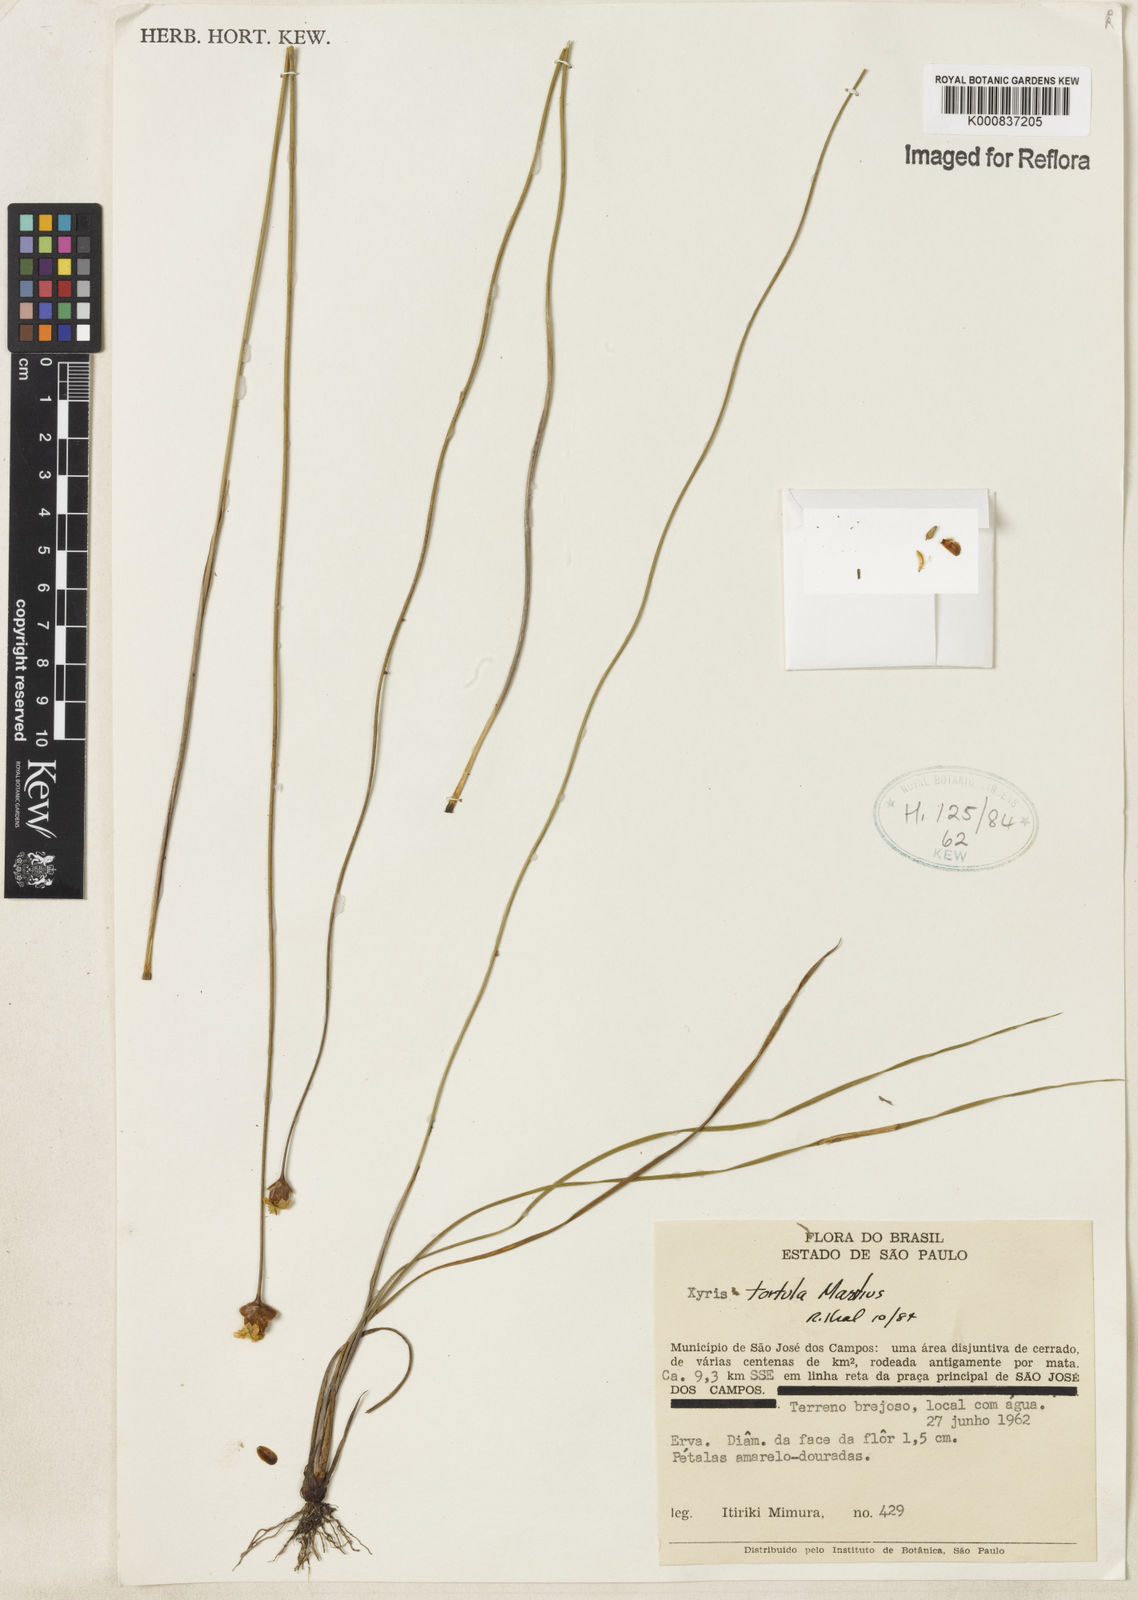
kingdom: Plantae
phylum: Tracheophyta
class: Liliopsida
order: Poales
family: Xyridaceae
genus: Xyris
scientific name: Xyris tortula
